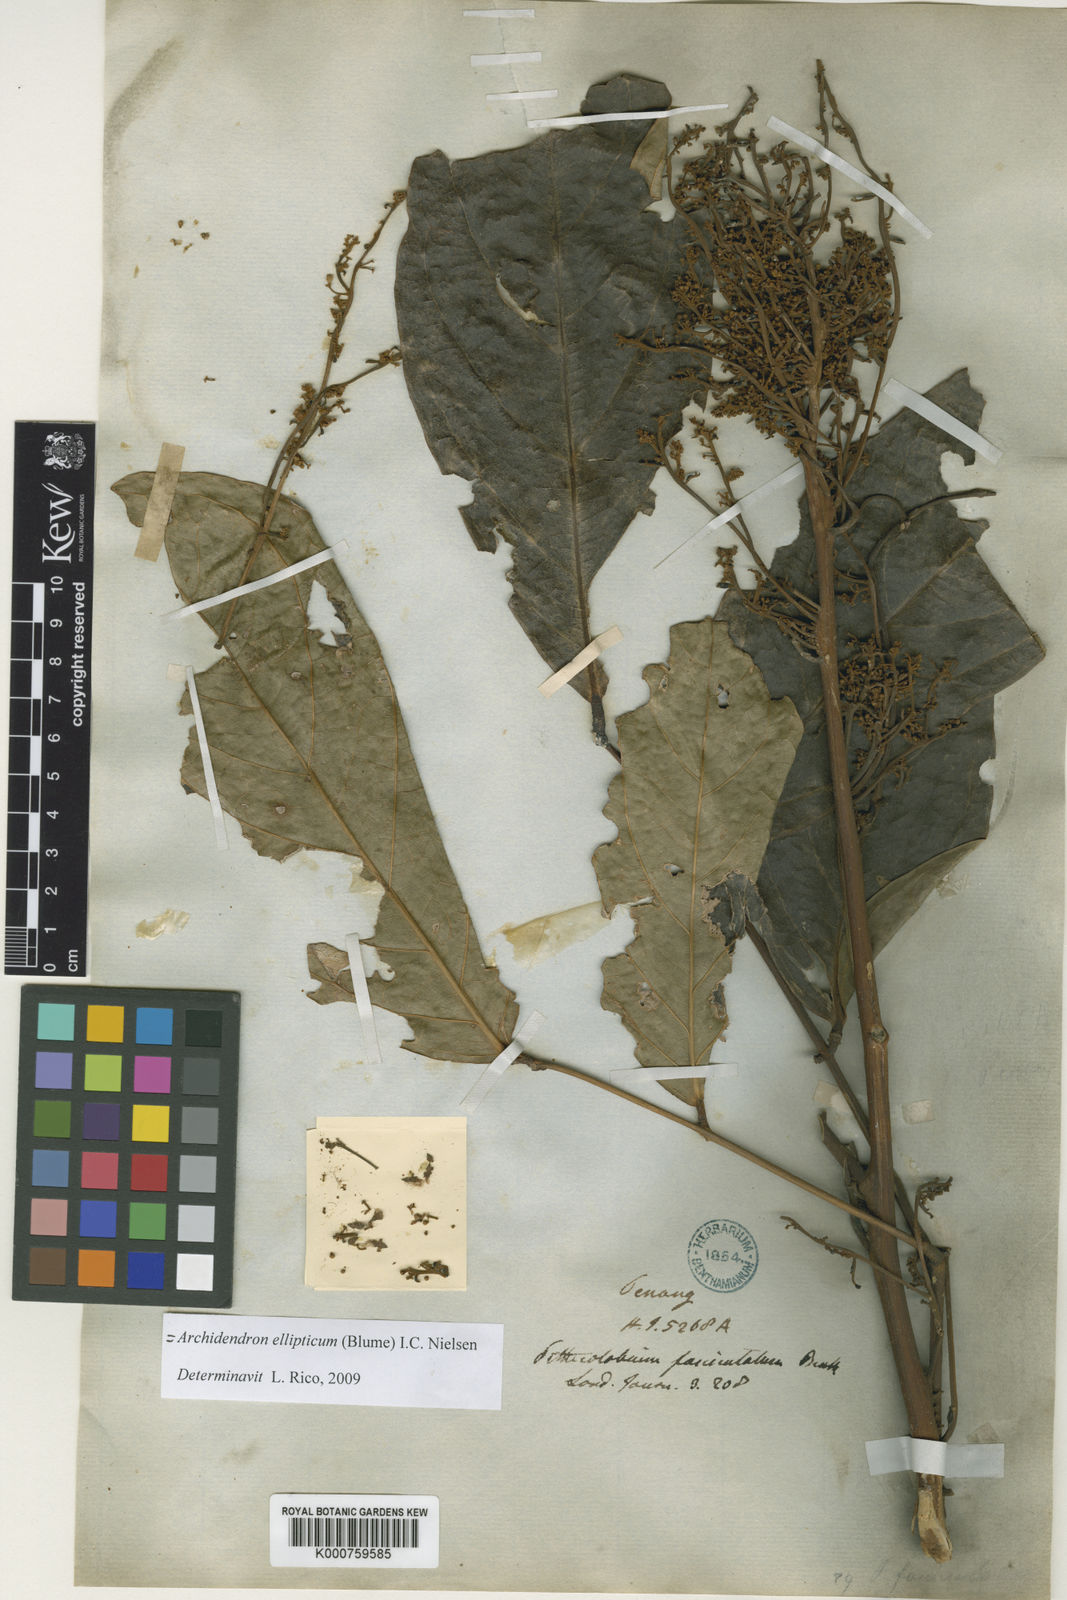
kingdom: Plantae
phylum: Tracheophyta
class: Magnoliopsida
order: Fabales
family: Fabaceae
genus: Archidendron
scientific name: Archidendron ellipticum
